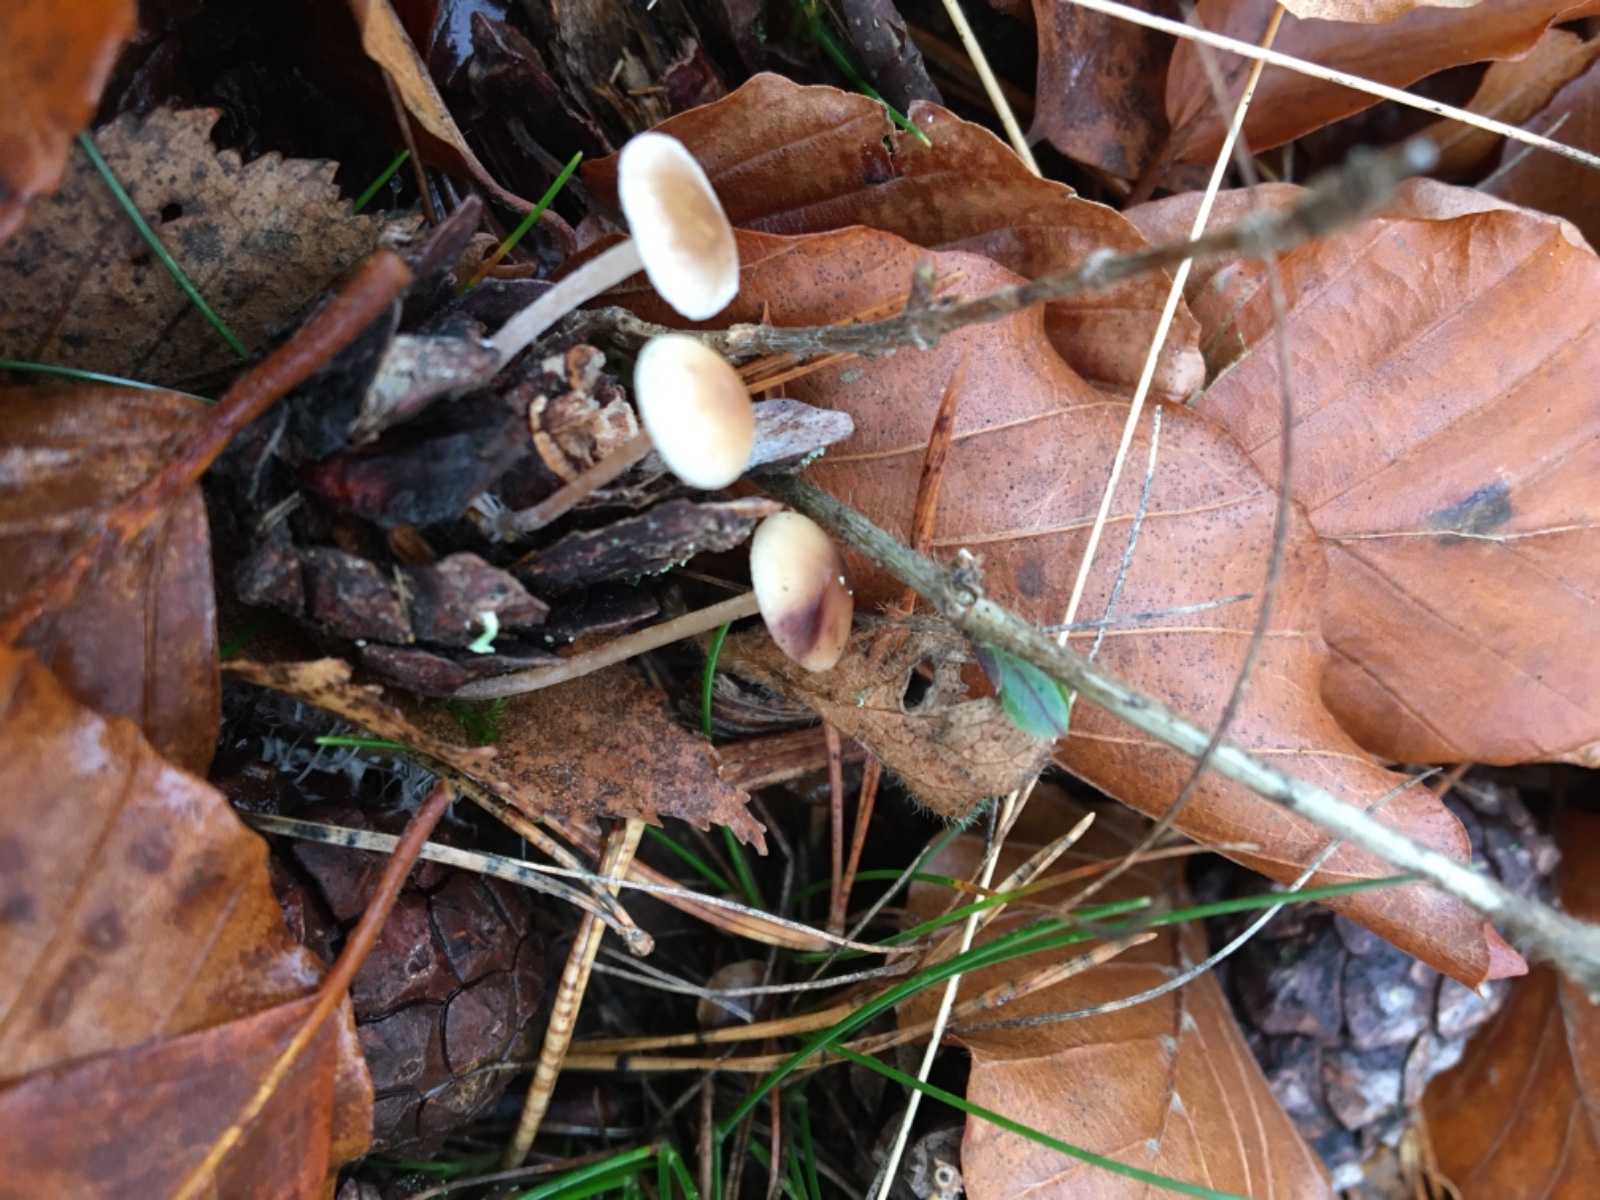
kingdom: Fungi
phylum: Basidiomycota
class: Agaricomycetes
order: Agaricales
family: Marasmiaceae
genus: Baeospora
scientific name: Baeospora
